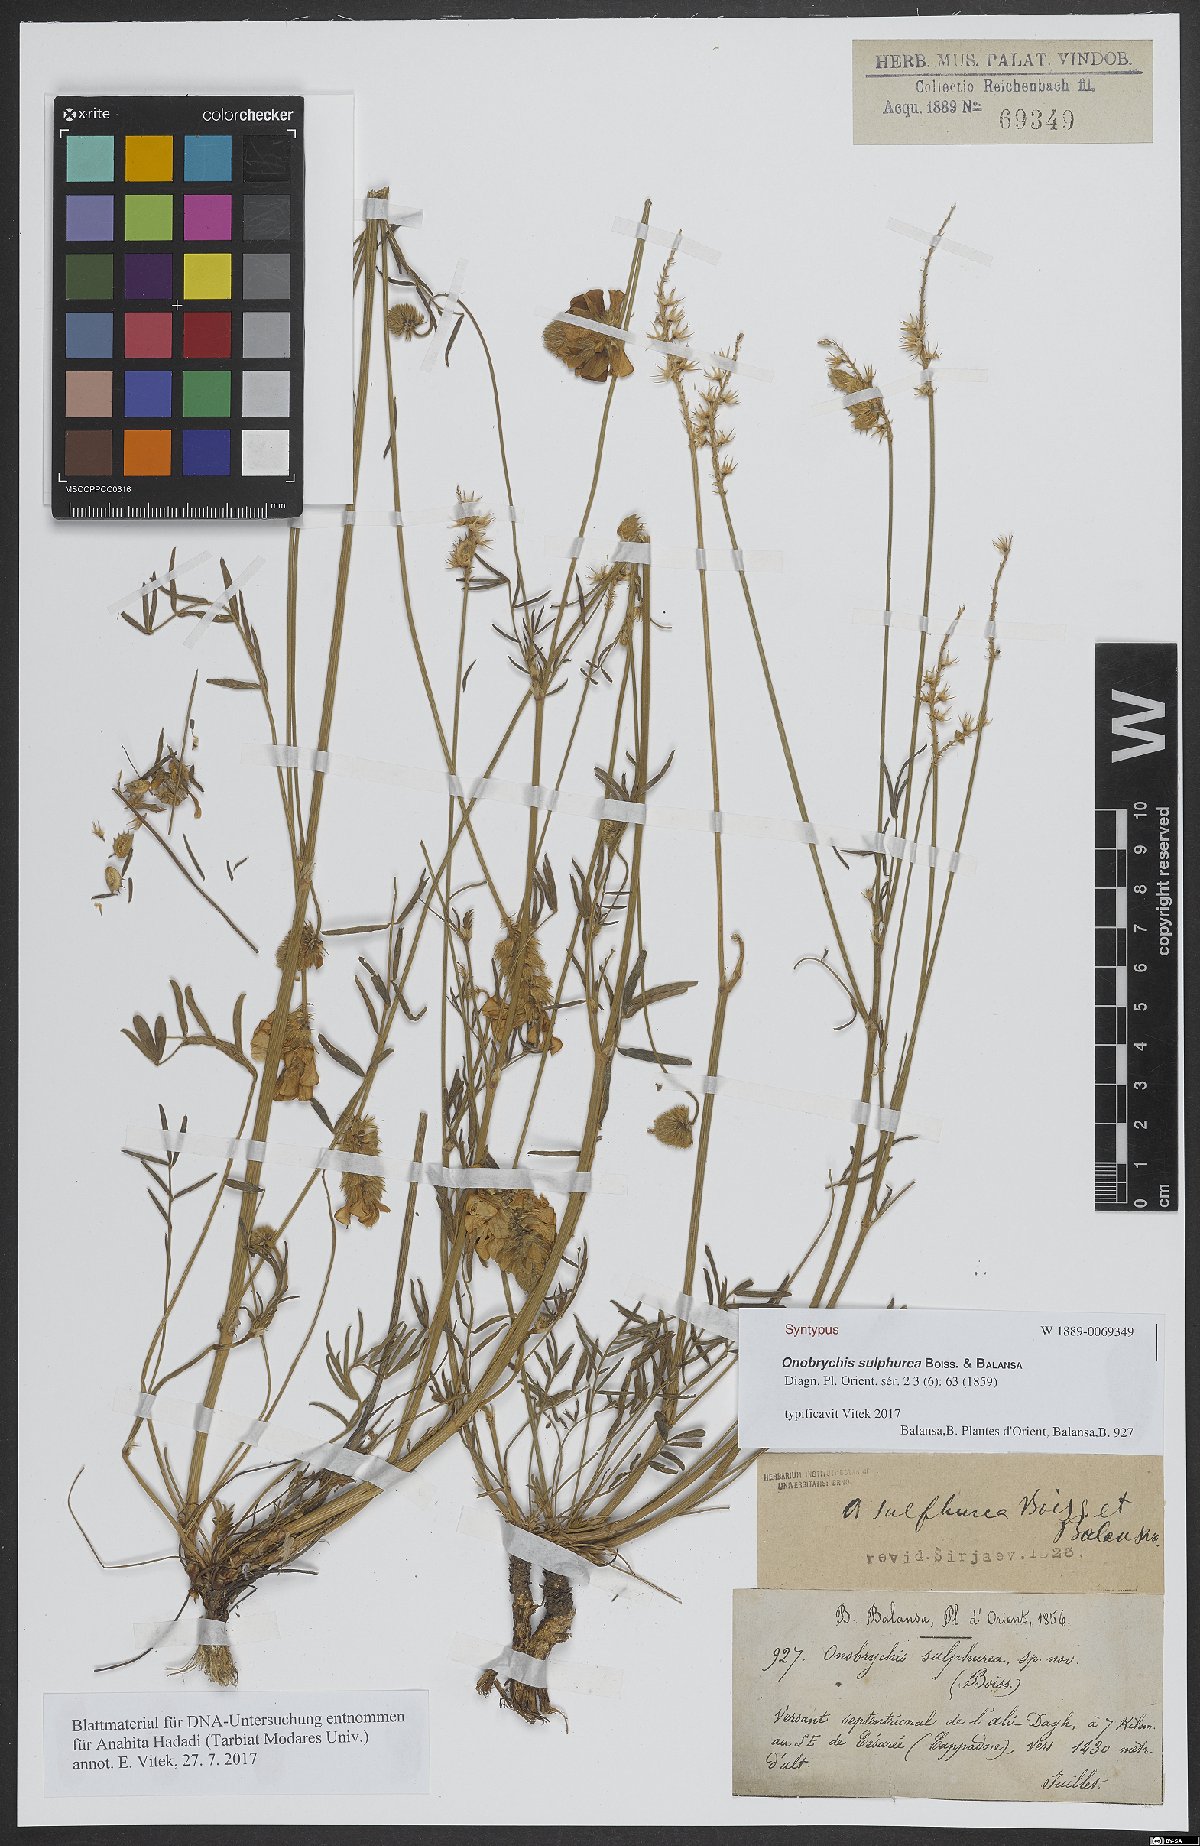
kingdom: Plantae
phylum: Tracheophyta
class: Magnoliopsida
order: Fabales
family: Fabaceae
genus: Onobrychis
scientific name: Onobrychis sulphurea
